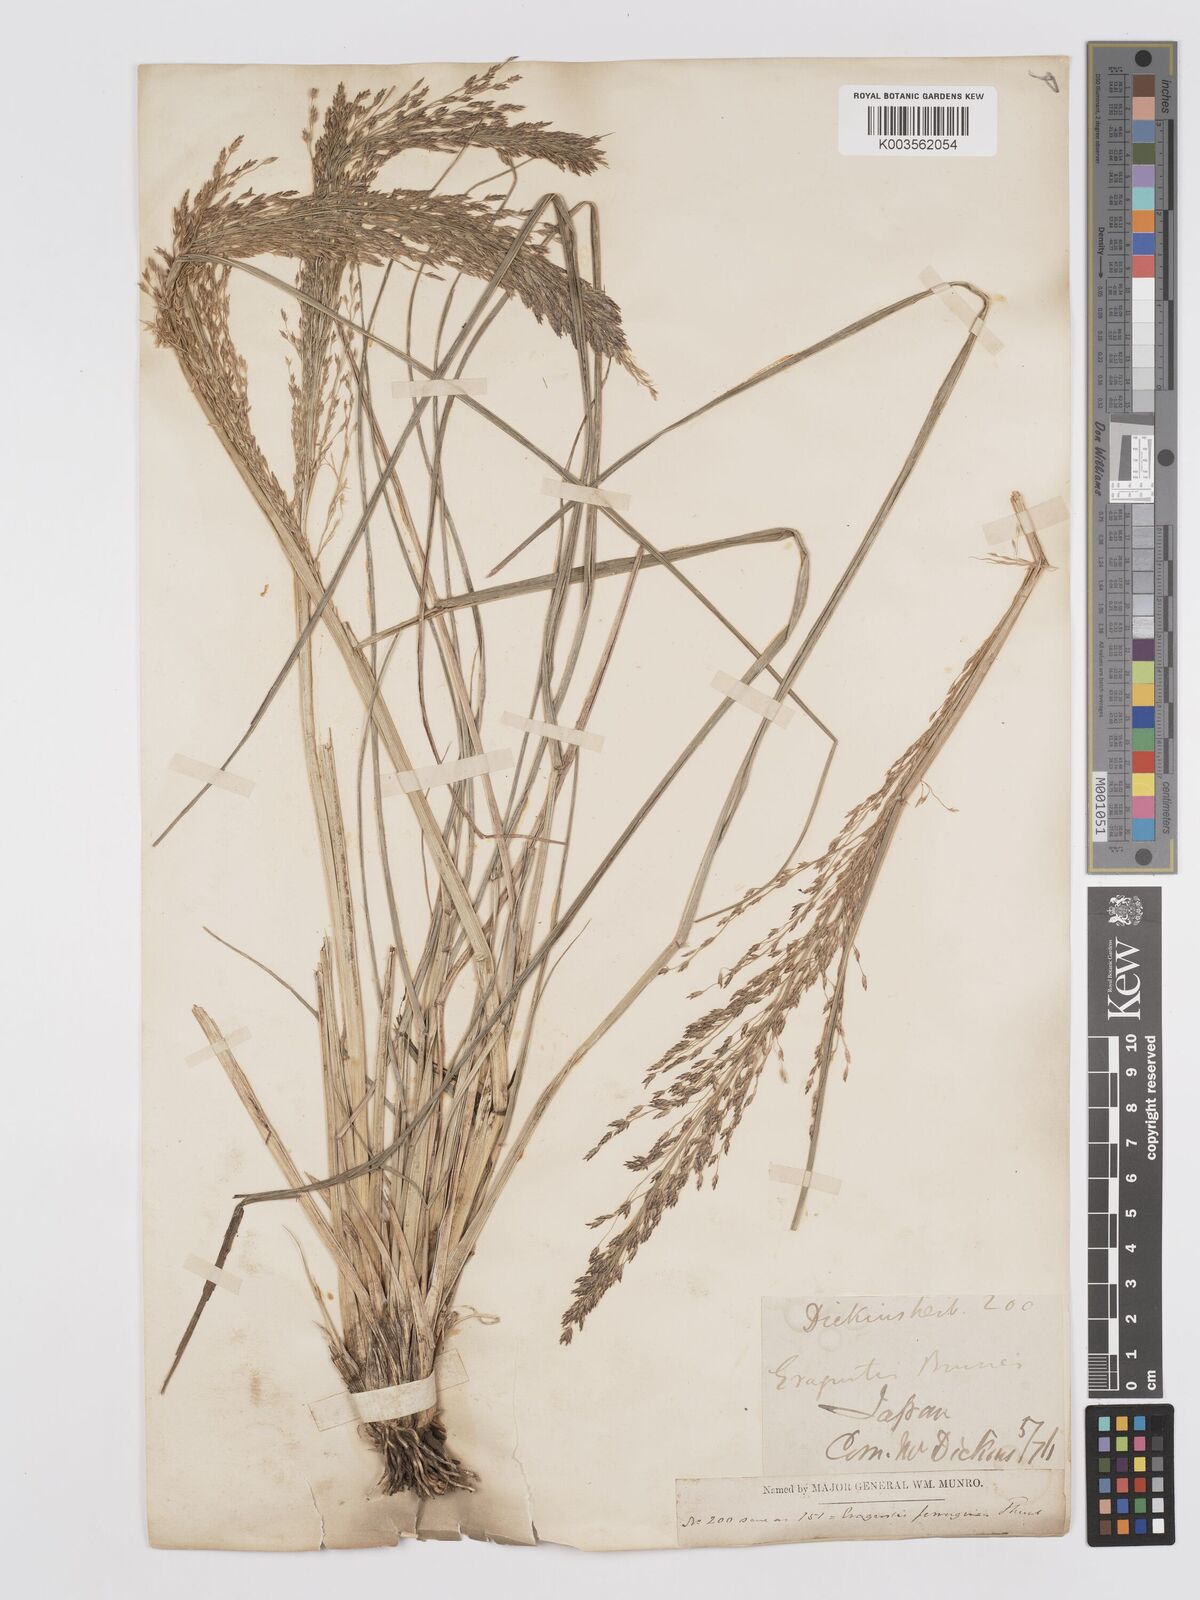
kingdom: Plantae
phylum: Tracheophyta
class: Liliopsida
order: Poales
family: Poaceae
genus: Eragrostis
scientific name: Eragrostis ferruginea
